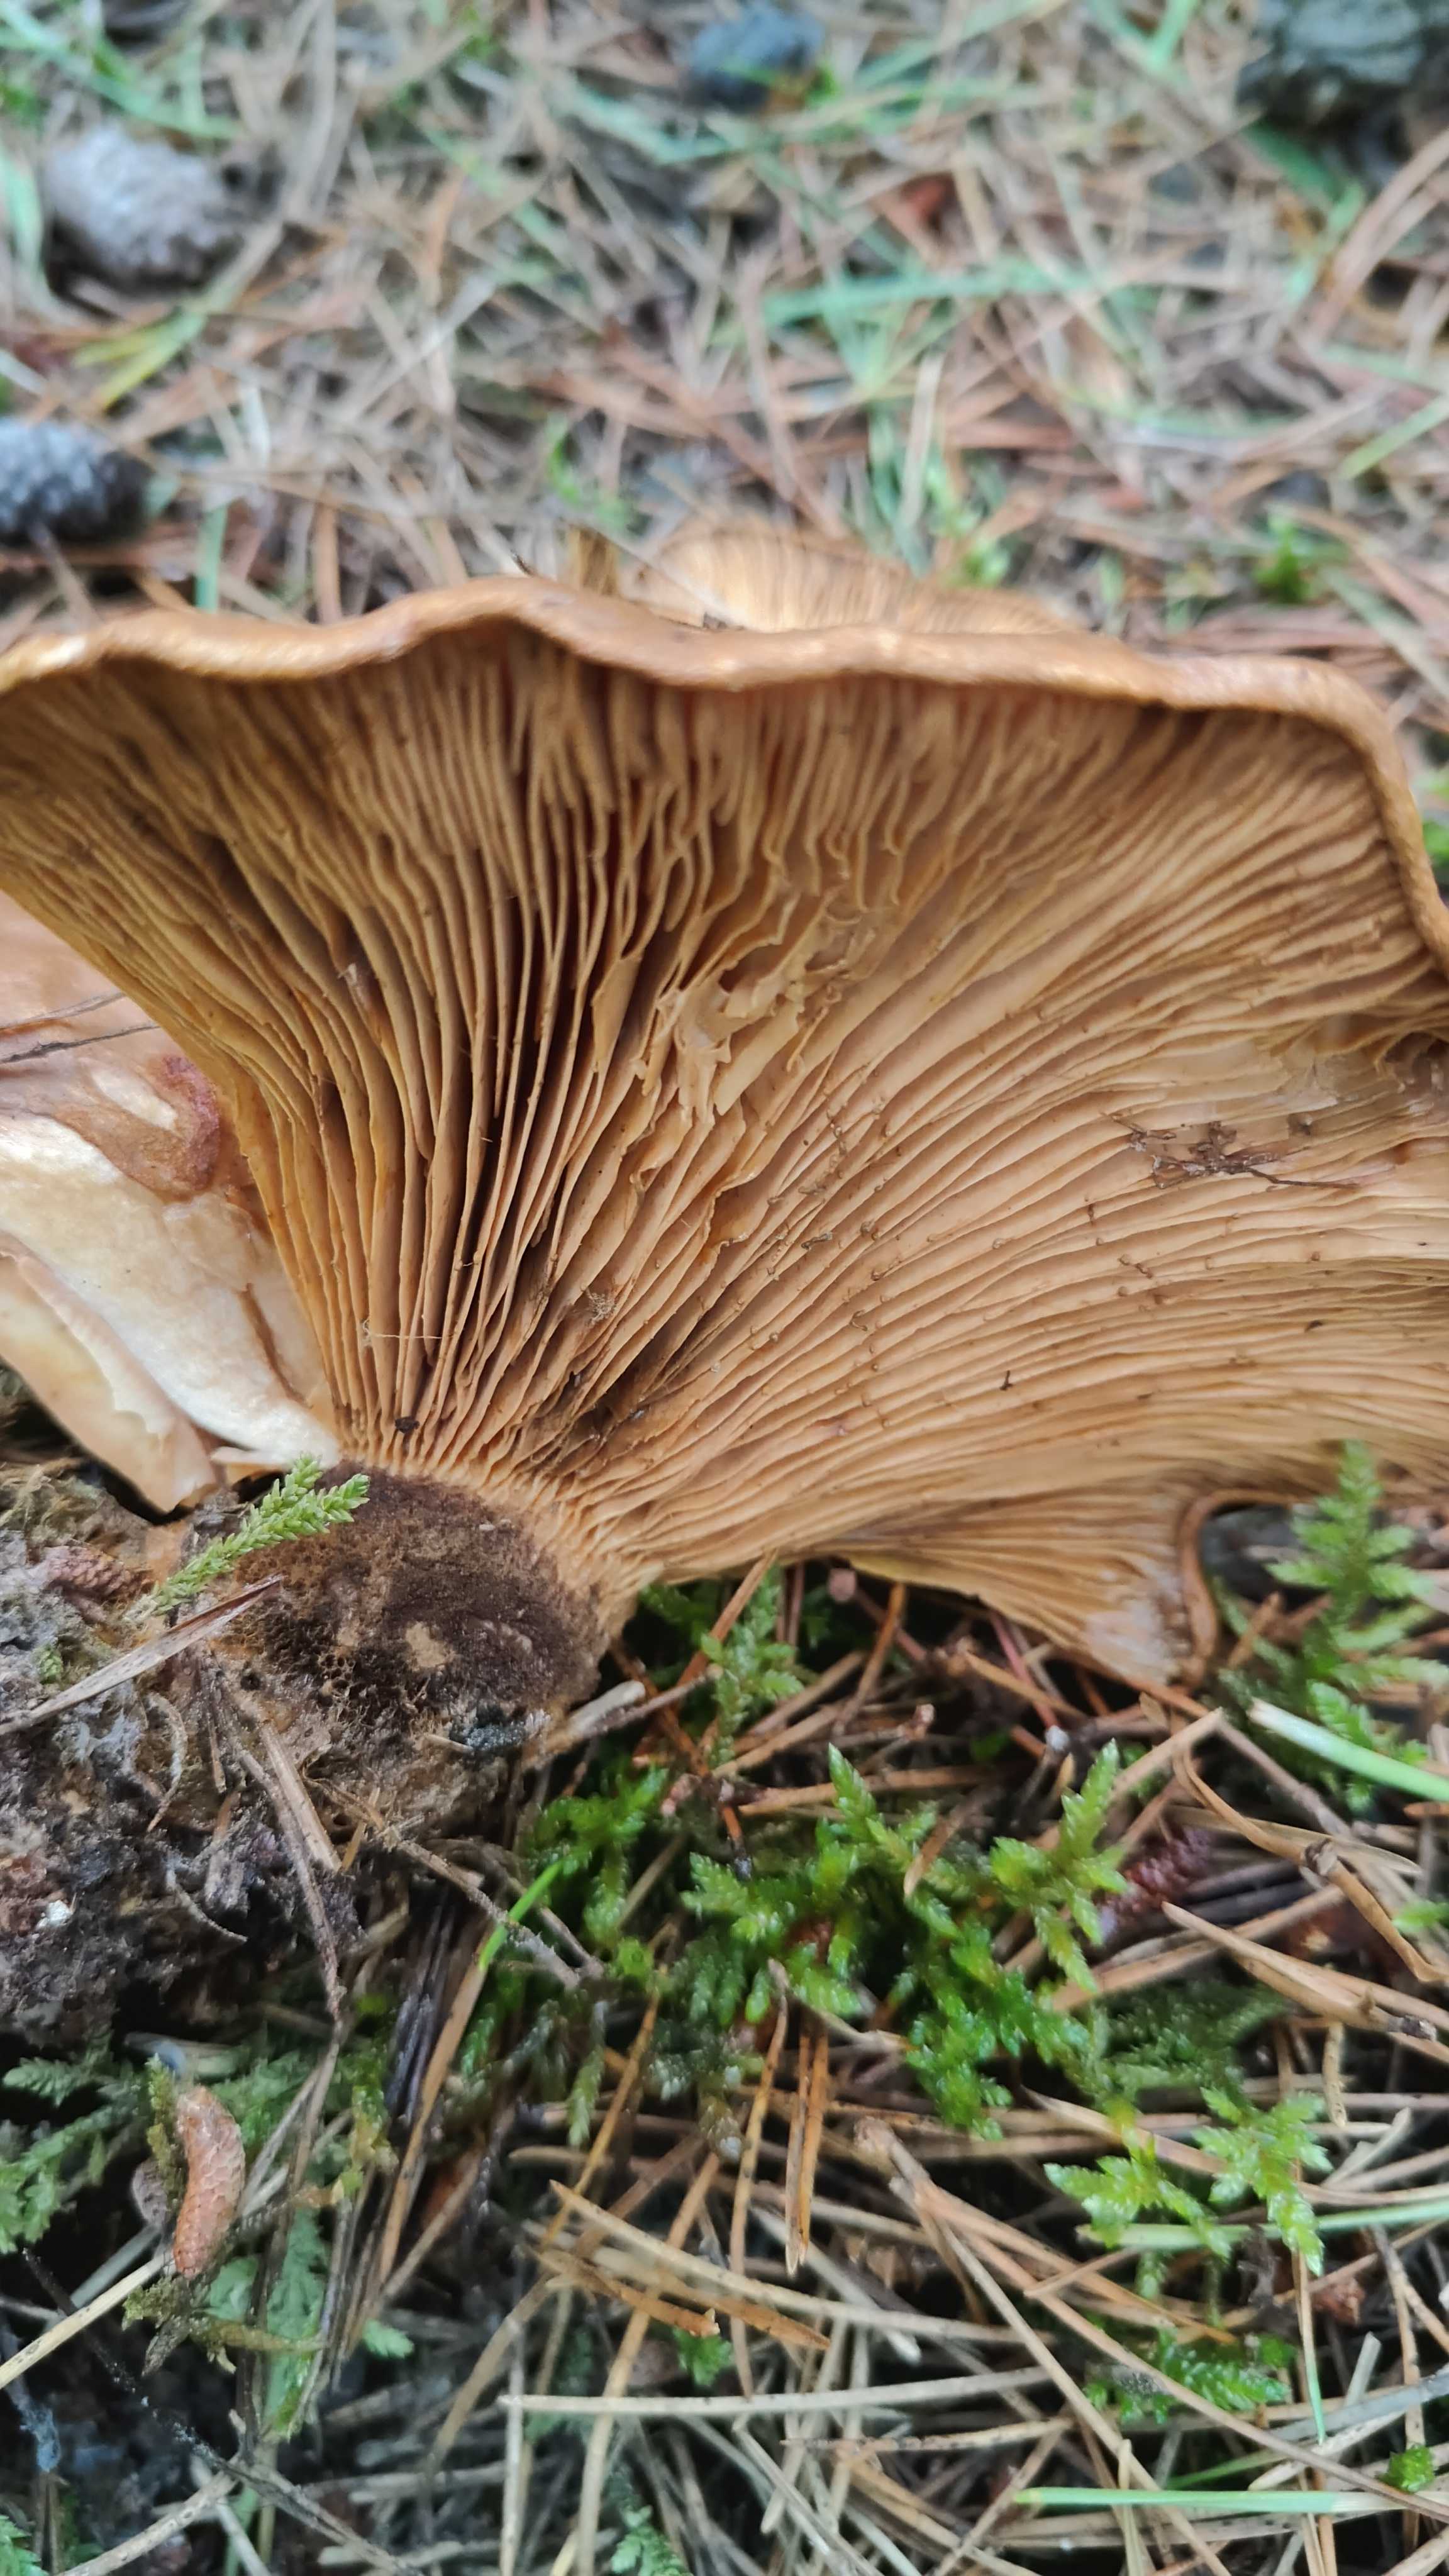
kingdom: Fungi
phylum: Basidiomycota
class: Agaricomycetes
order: Boletales
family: Tapinellaceae
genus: Tapinella
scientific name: Tapinella atrotomentosa
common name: sortfiltet viftesvamp
